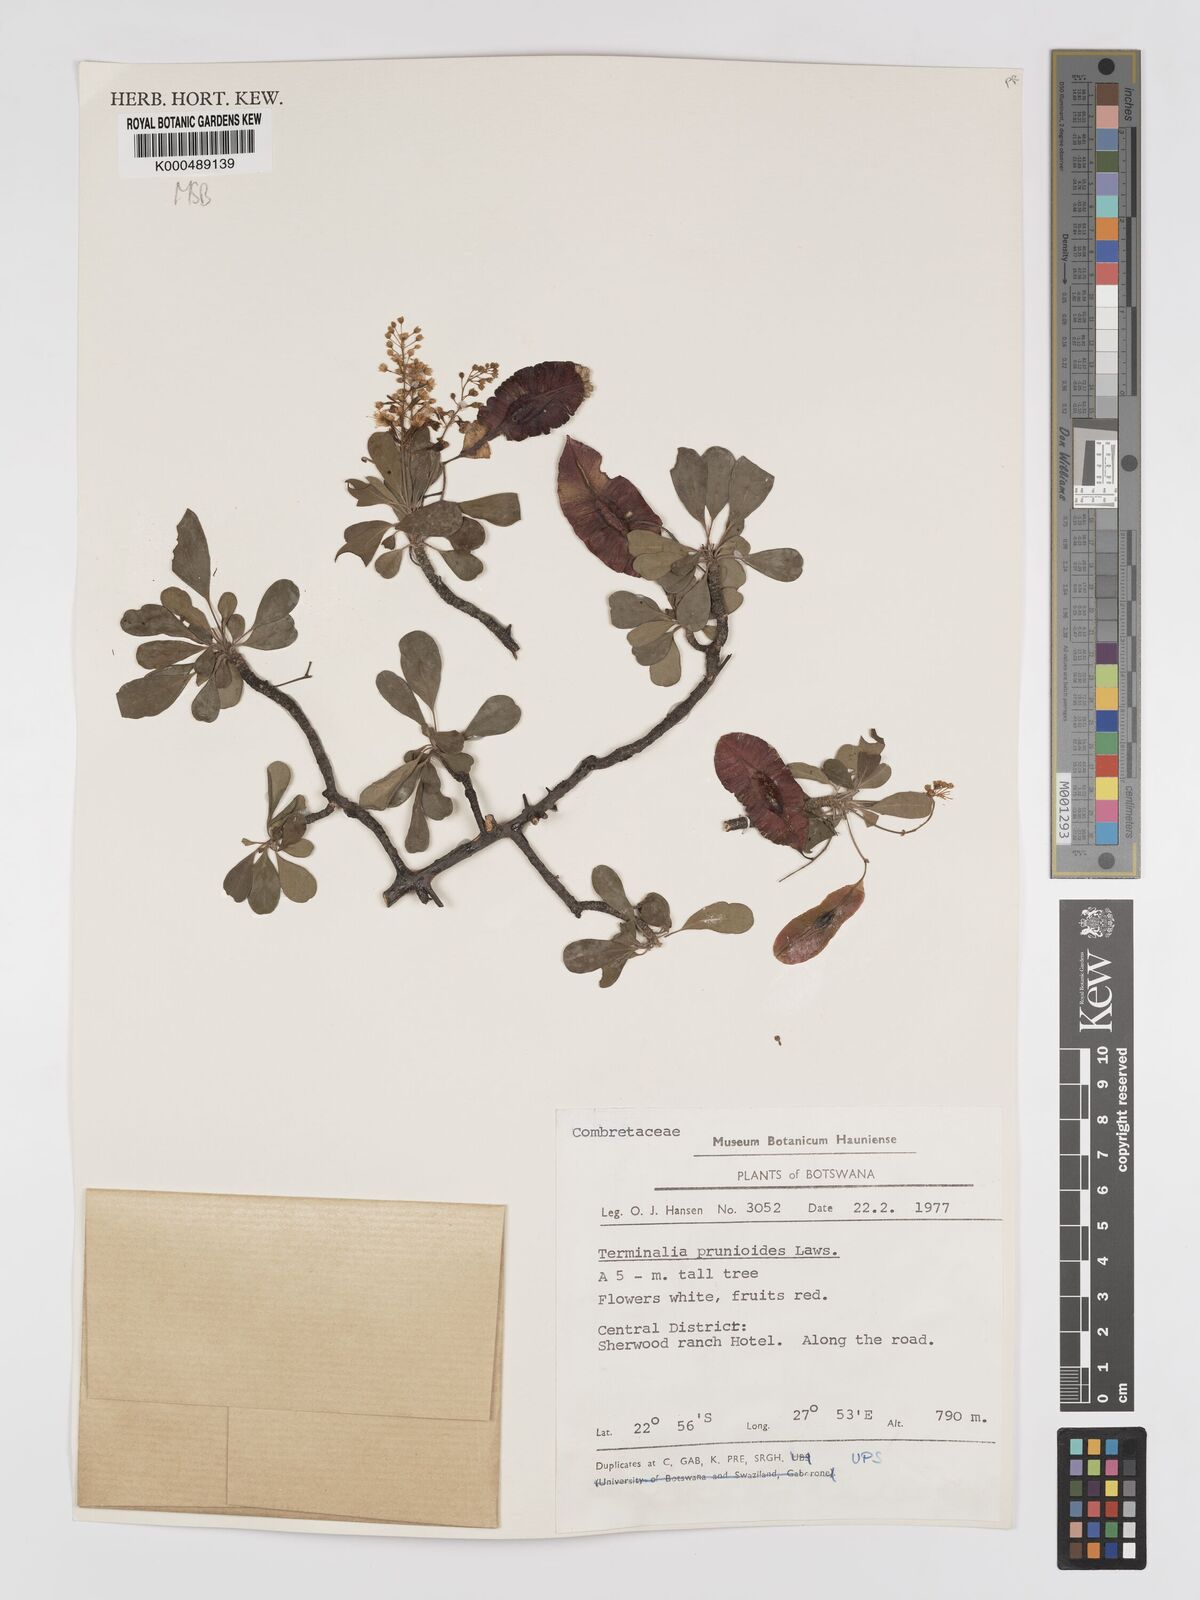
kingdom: Plantae
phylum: Tracheophyta
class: Magnoliopsida
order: Myrtales
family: Combretaceae
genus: Terminalia
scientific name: Terminalia prunioides
